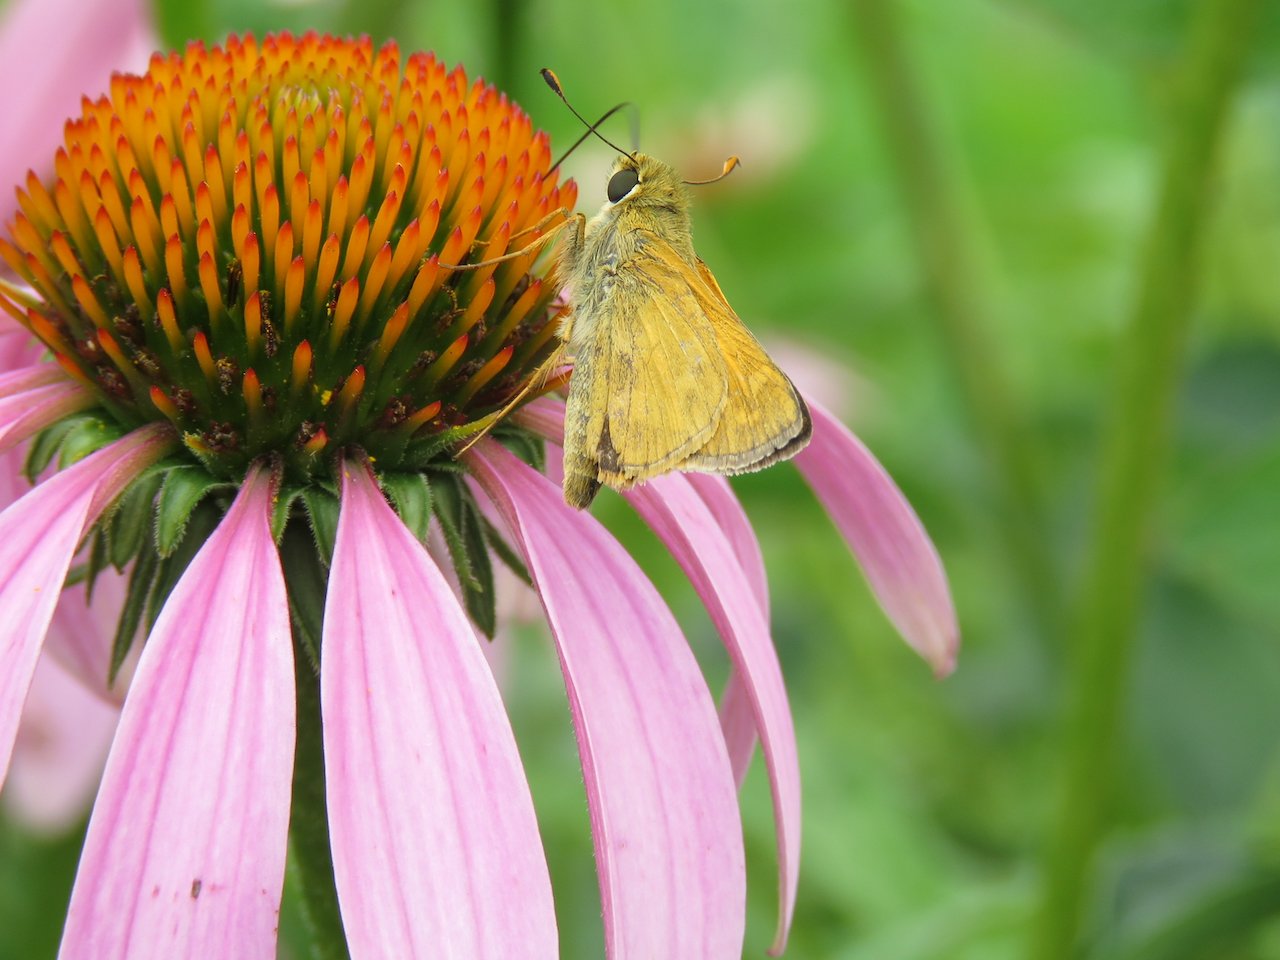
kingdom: Animalia
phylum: Arthropoda
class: Insecta
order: Lepidoptera
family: Hesperiidae
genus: Atalopedes
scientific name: Atalopedes campestris
